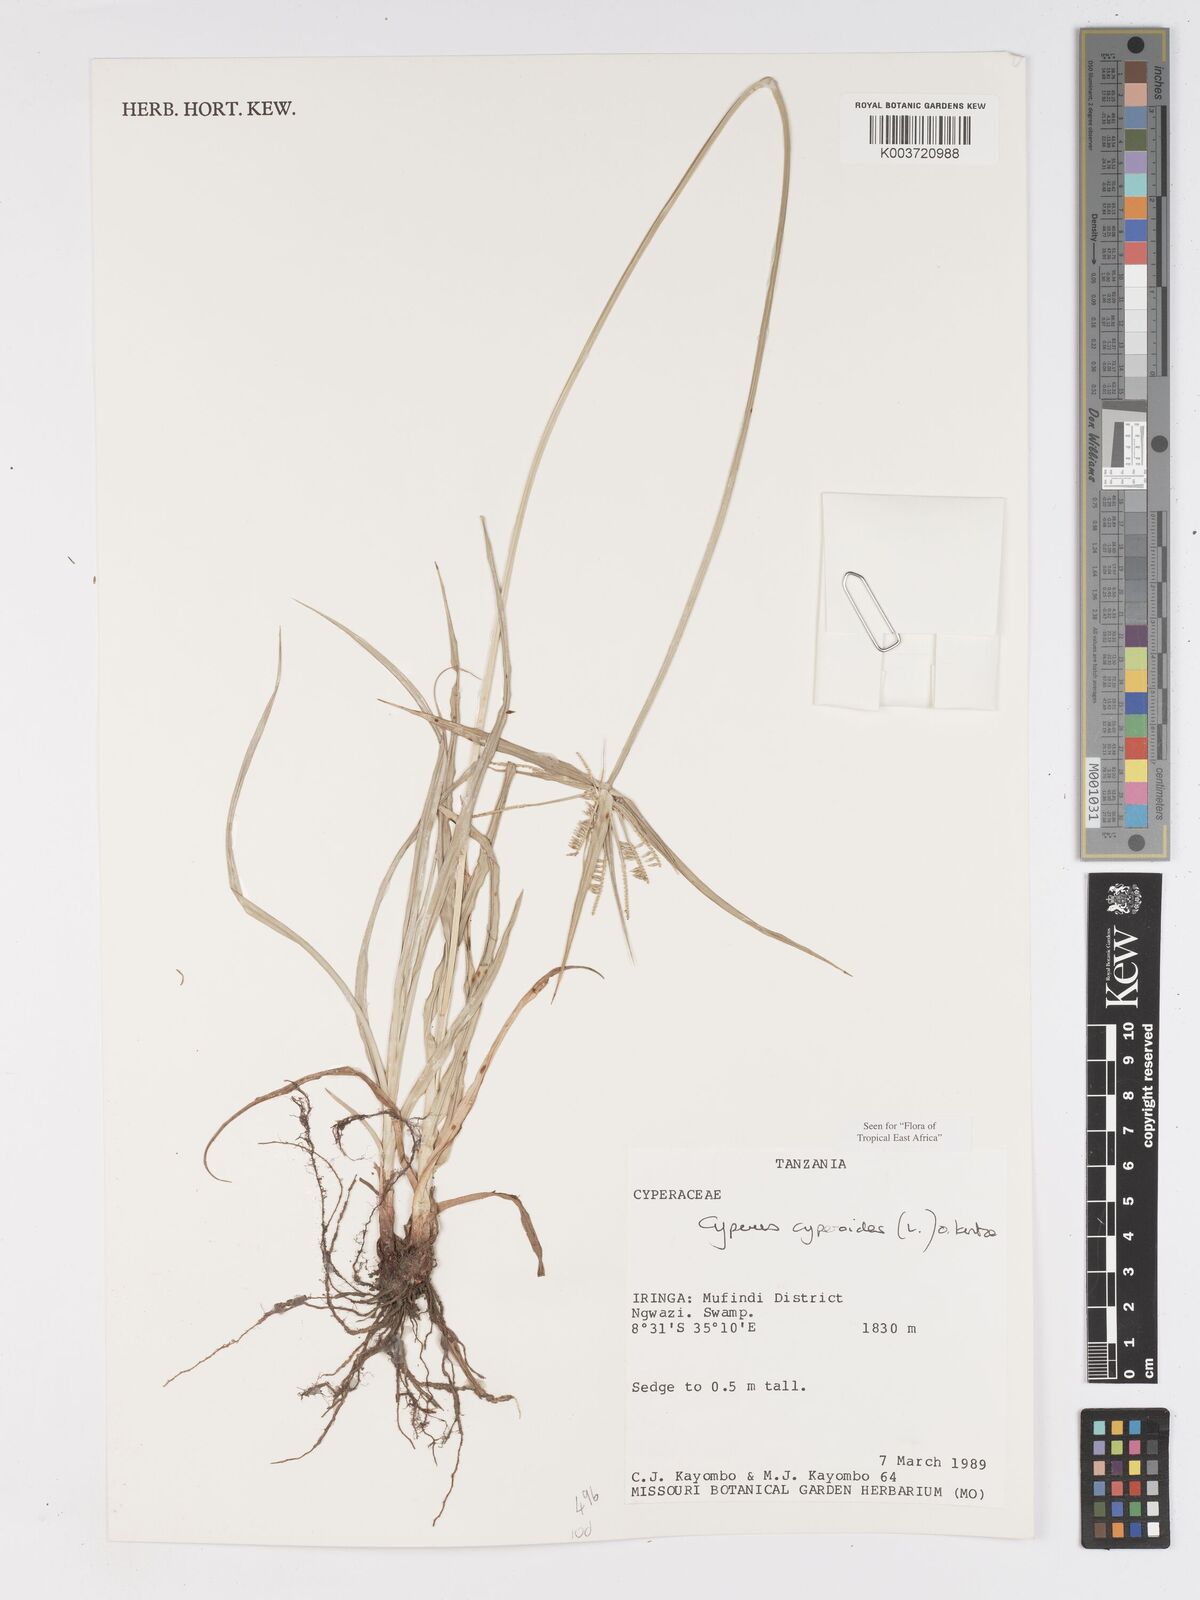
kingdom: Plantae
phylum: Tracheophyta
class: Liliopsida
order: Poales
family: Cyperaceae
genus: Cyperus
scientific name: Cyperus
